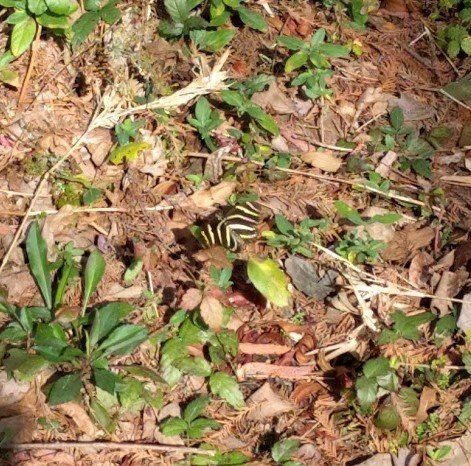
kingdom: Animalia
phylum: Arthropoda
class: Insecta
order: Lepidoptera
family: Nymphalidae
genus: Heliconius
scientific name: Heliconius charithonia
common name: Zebra Longwing
